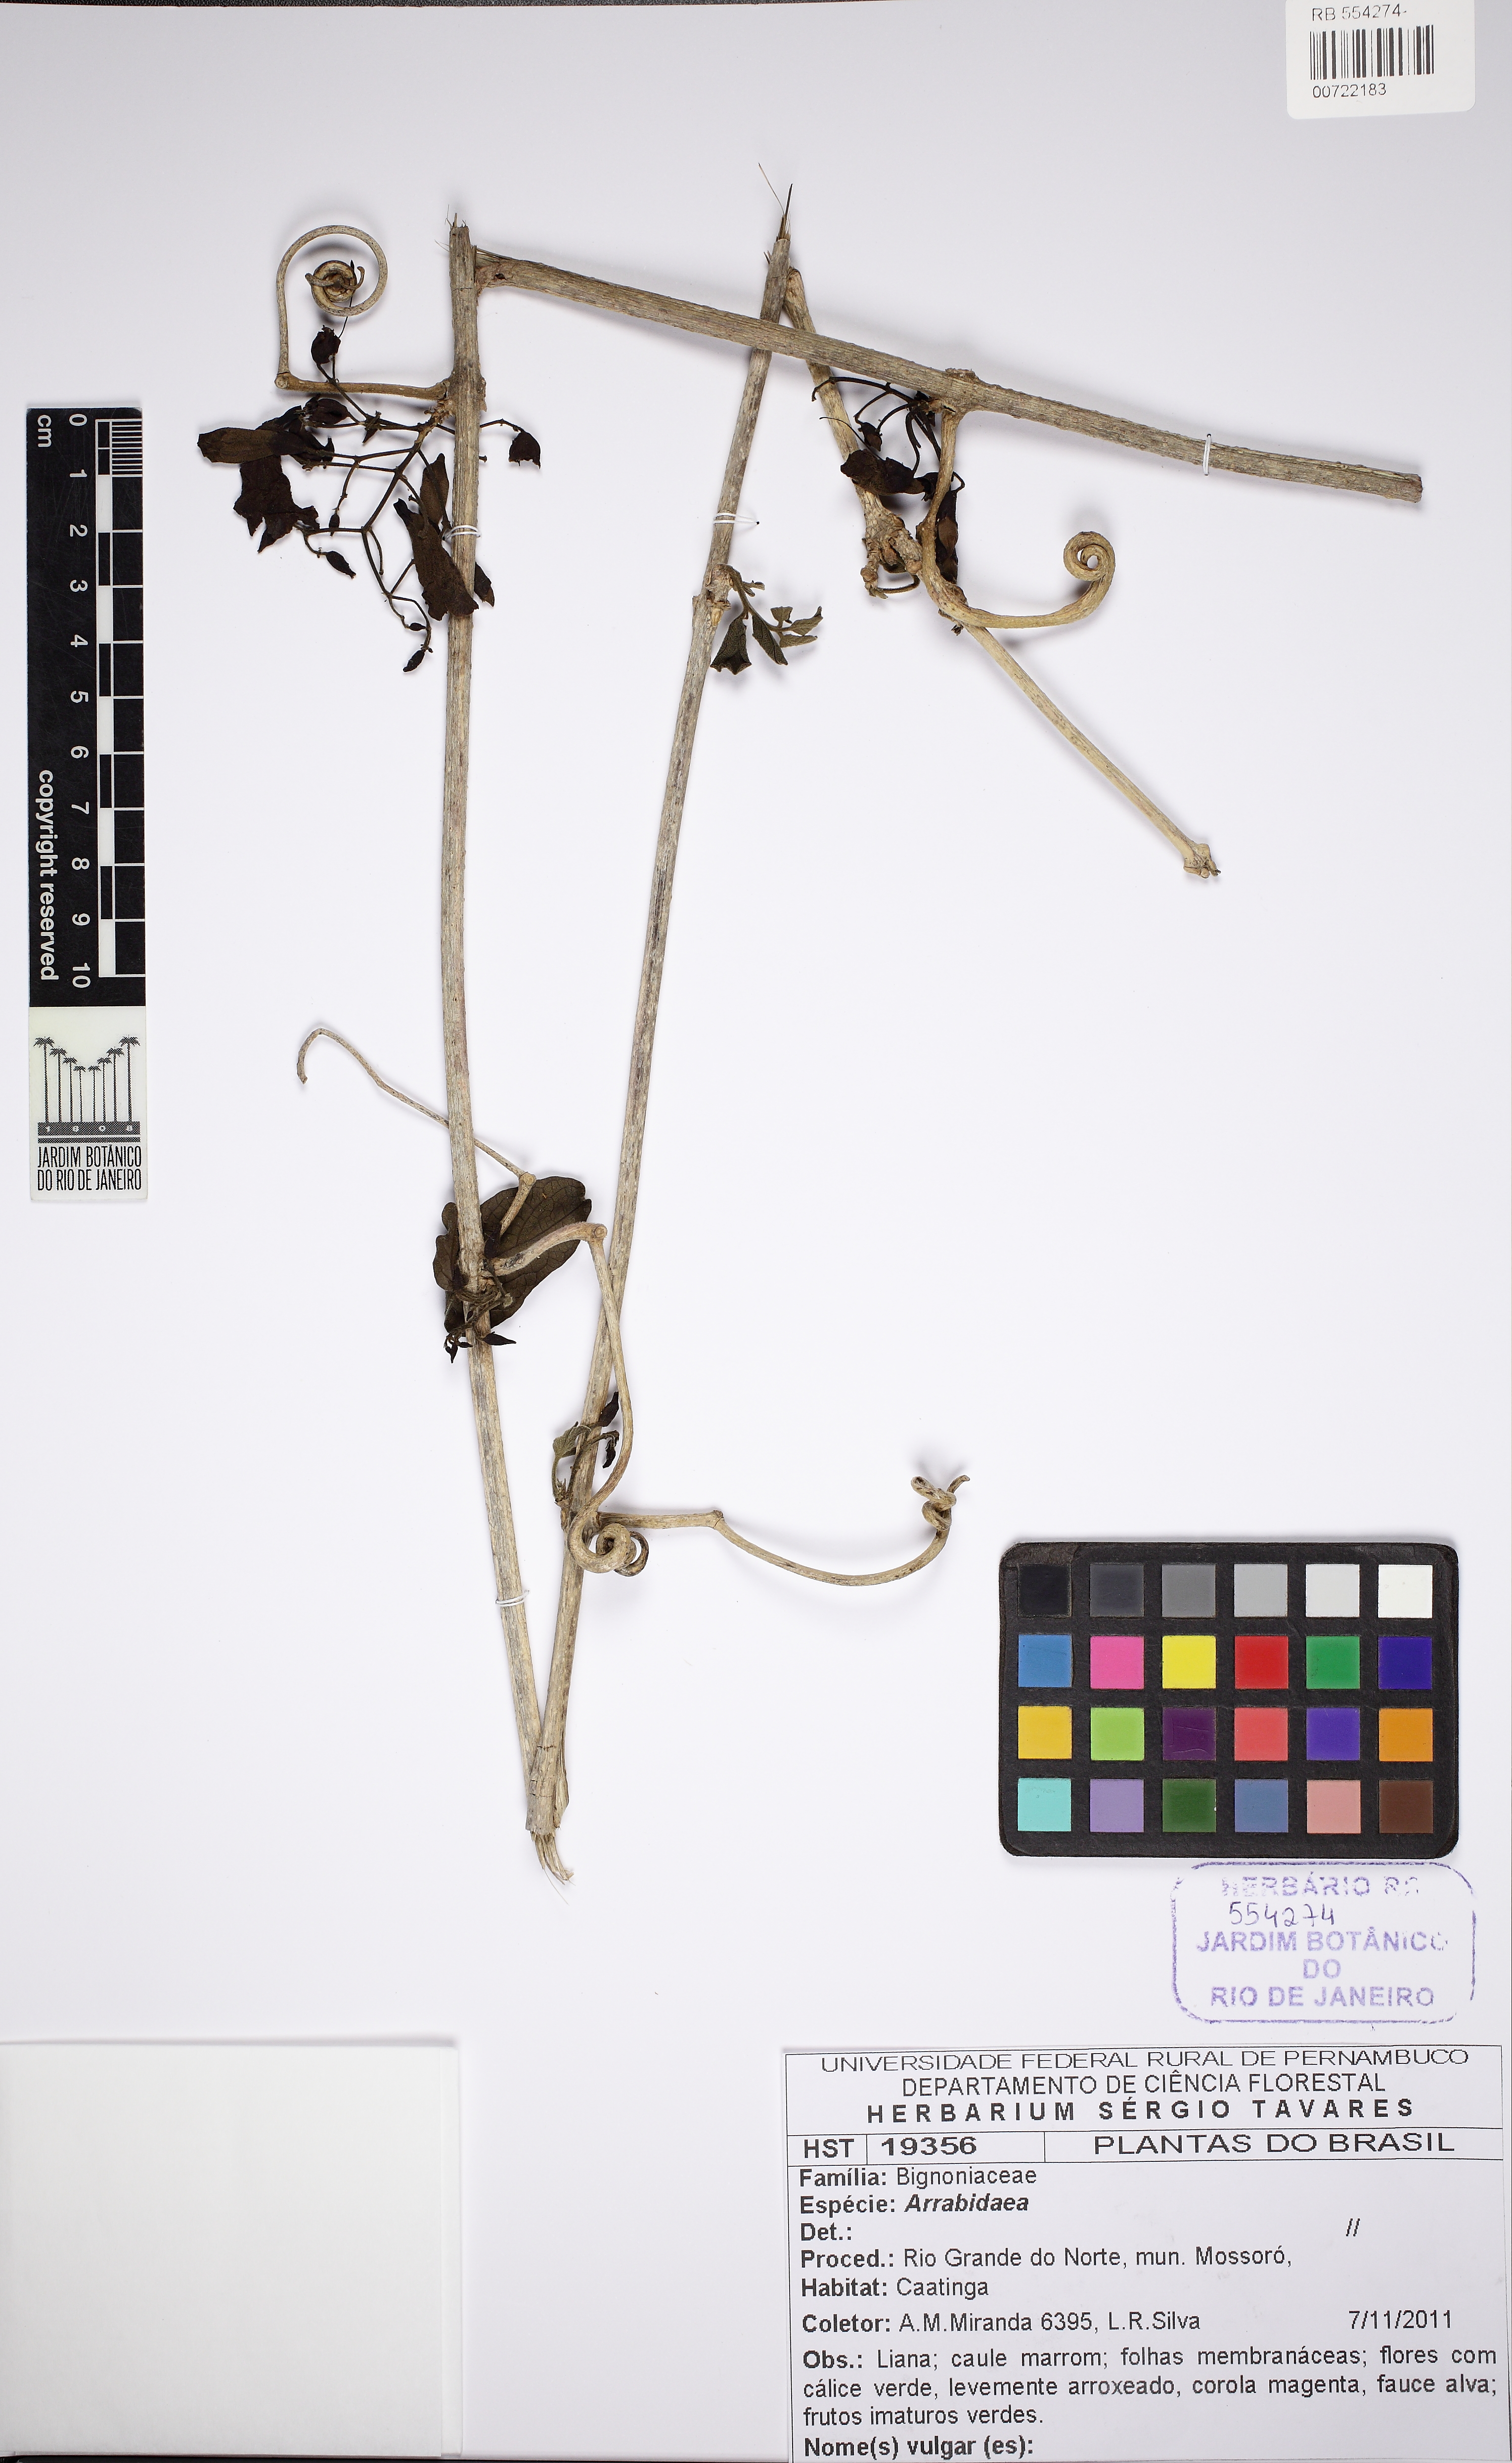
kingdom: Plantae
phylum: Tracheophyta
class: Magnoliopsida
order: Lamiales
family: Bignoniaceae
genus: Tanaecium
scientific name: Tanaecium dichotomum
